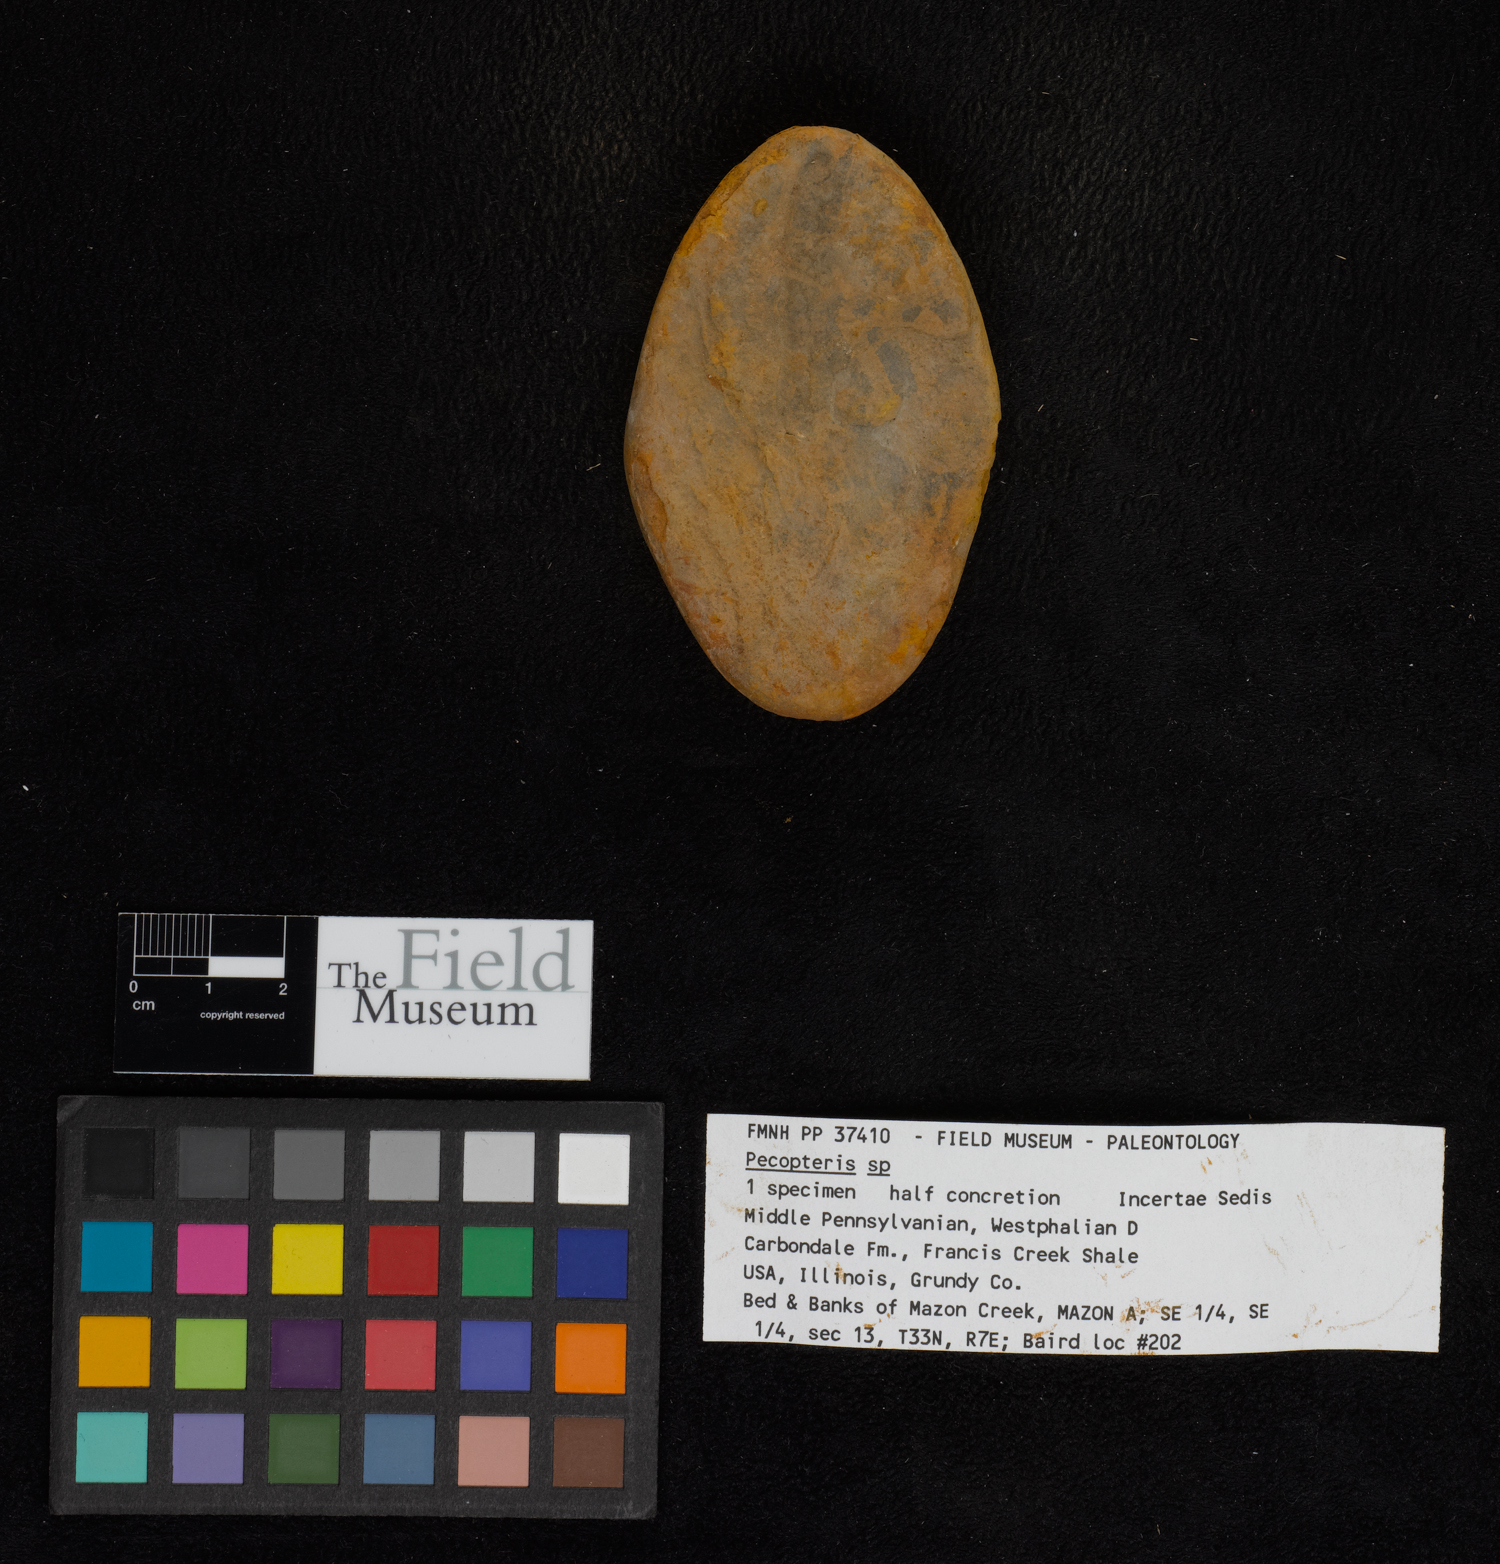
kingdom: Plantae
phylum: Tracheophyta
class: Polypodiopsida
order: Marattiales
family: Asterothecaceae
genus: Pecopteris
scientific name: Pecopteris
